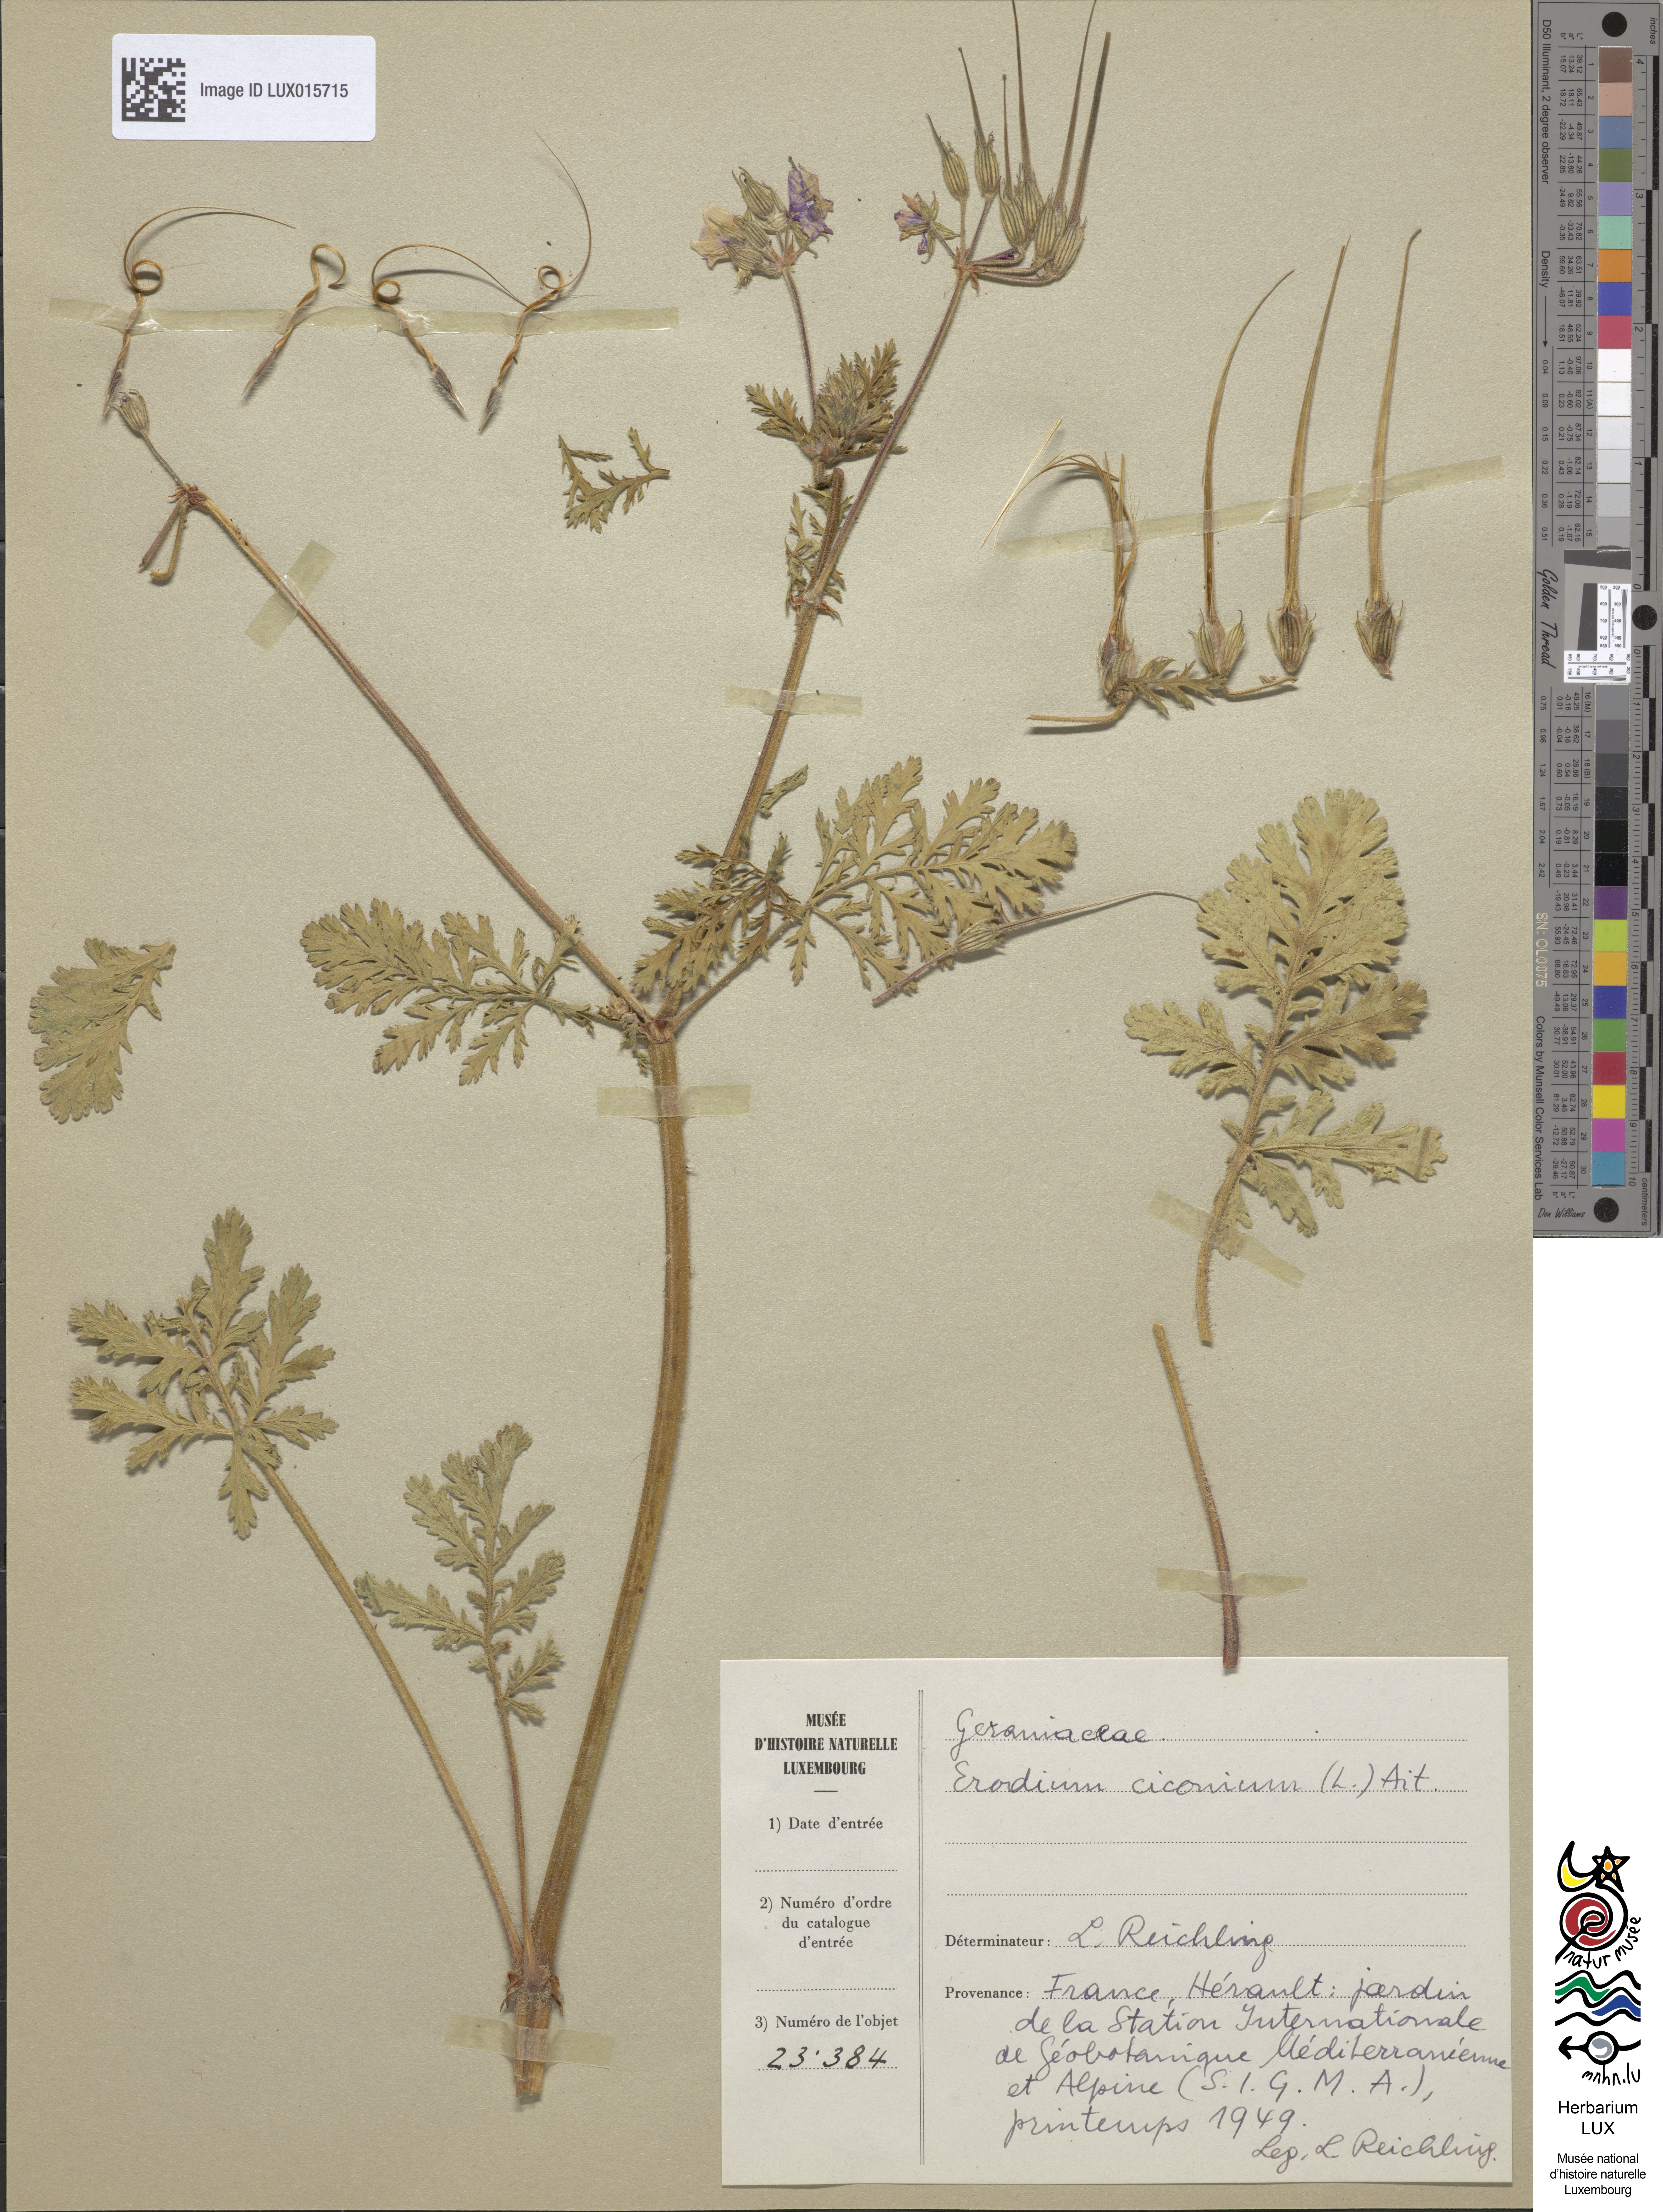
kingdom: Plantae
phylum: Tracheophyta
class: Magnoliopsida
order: Geraniales
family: Geraniaceae
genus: Erodium
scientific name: Erodium ciconium
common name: Common stork's bill
